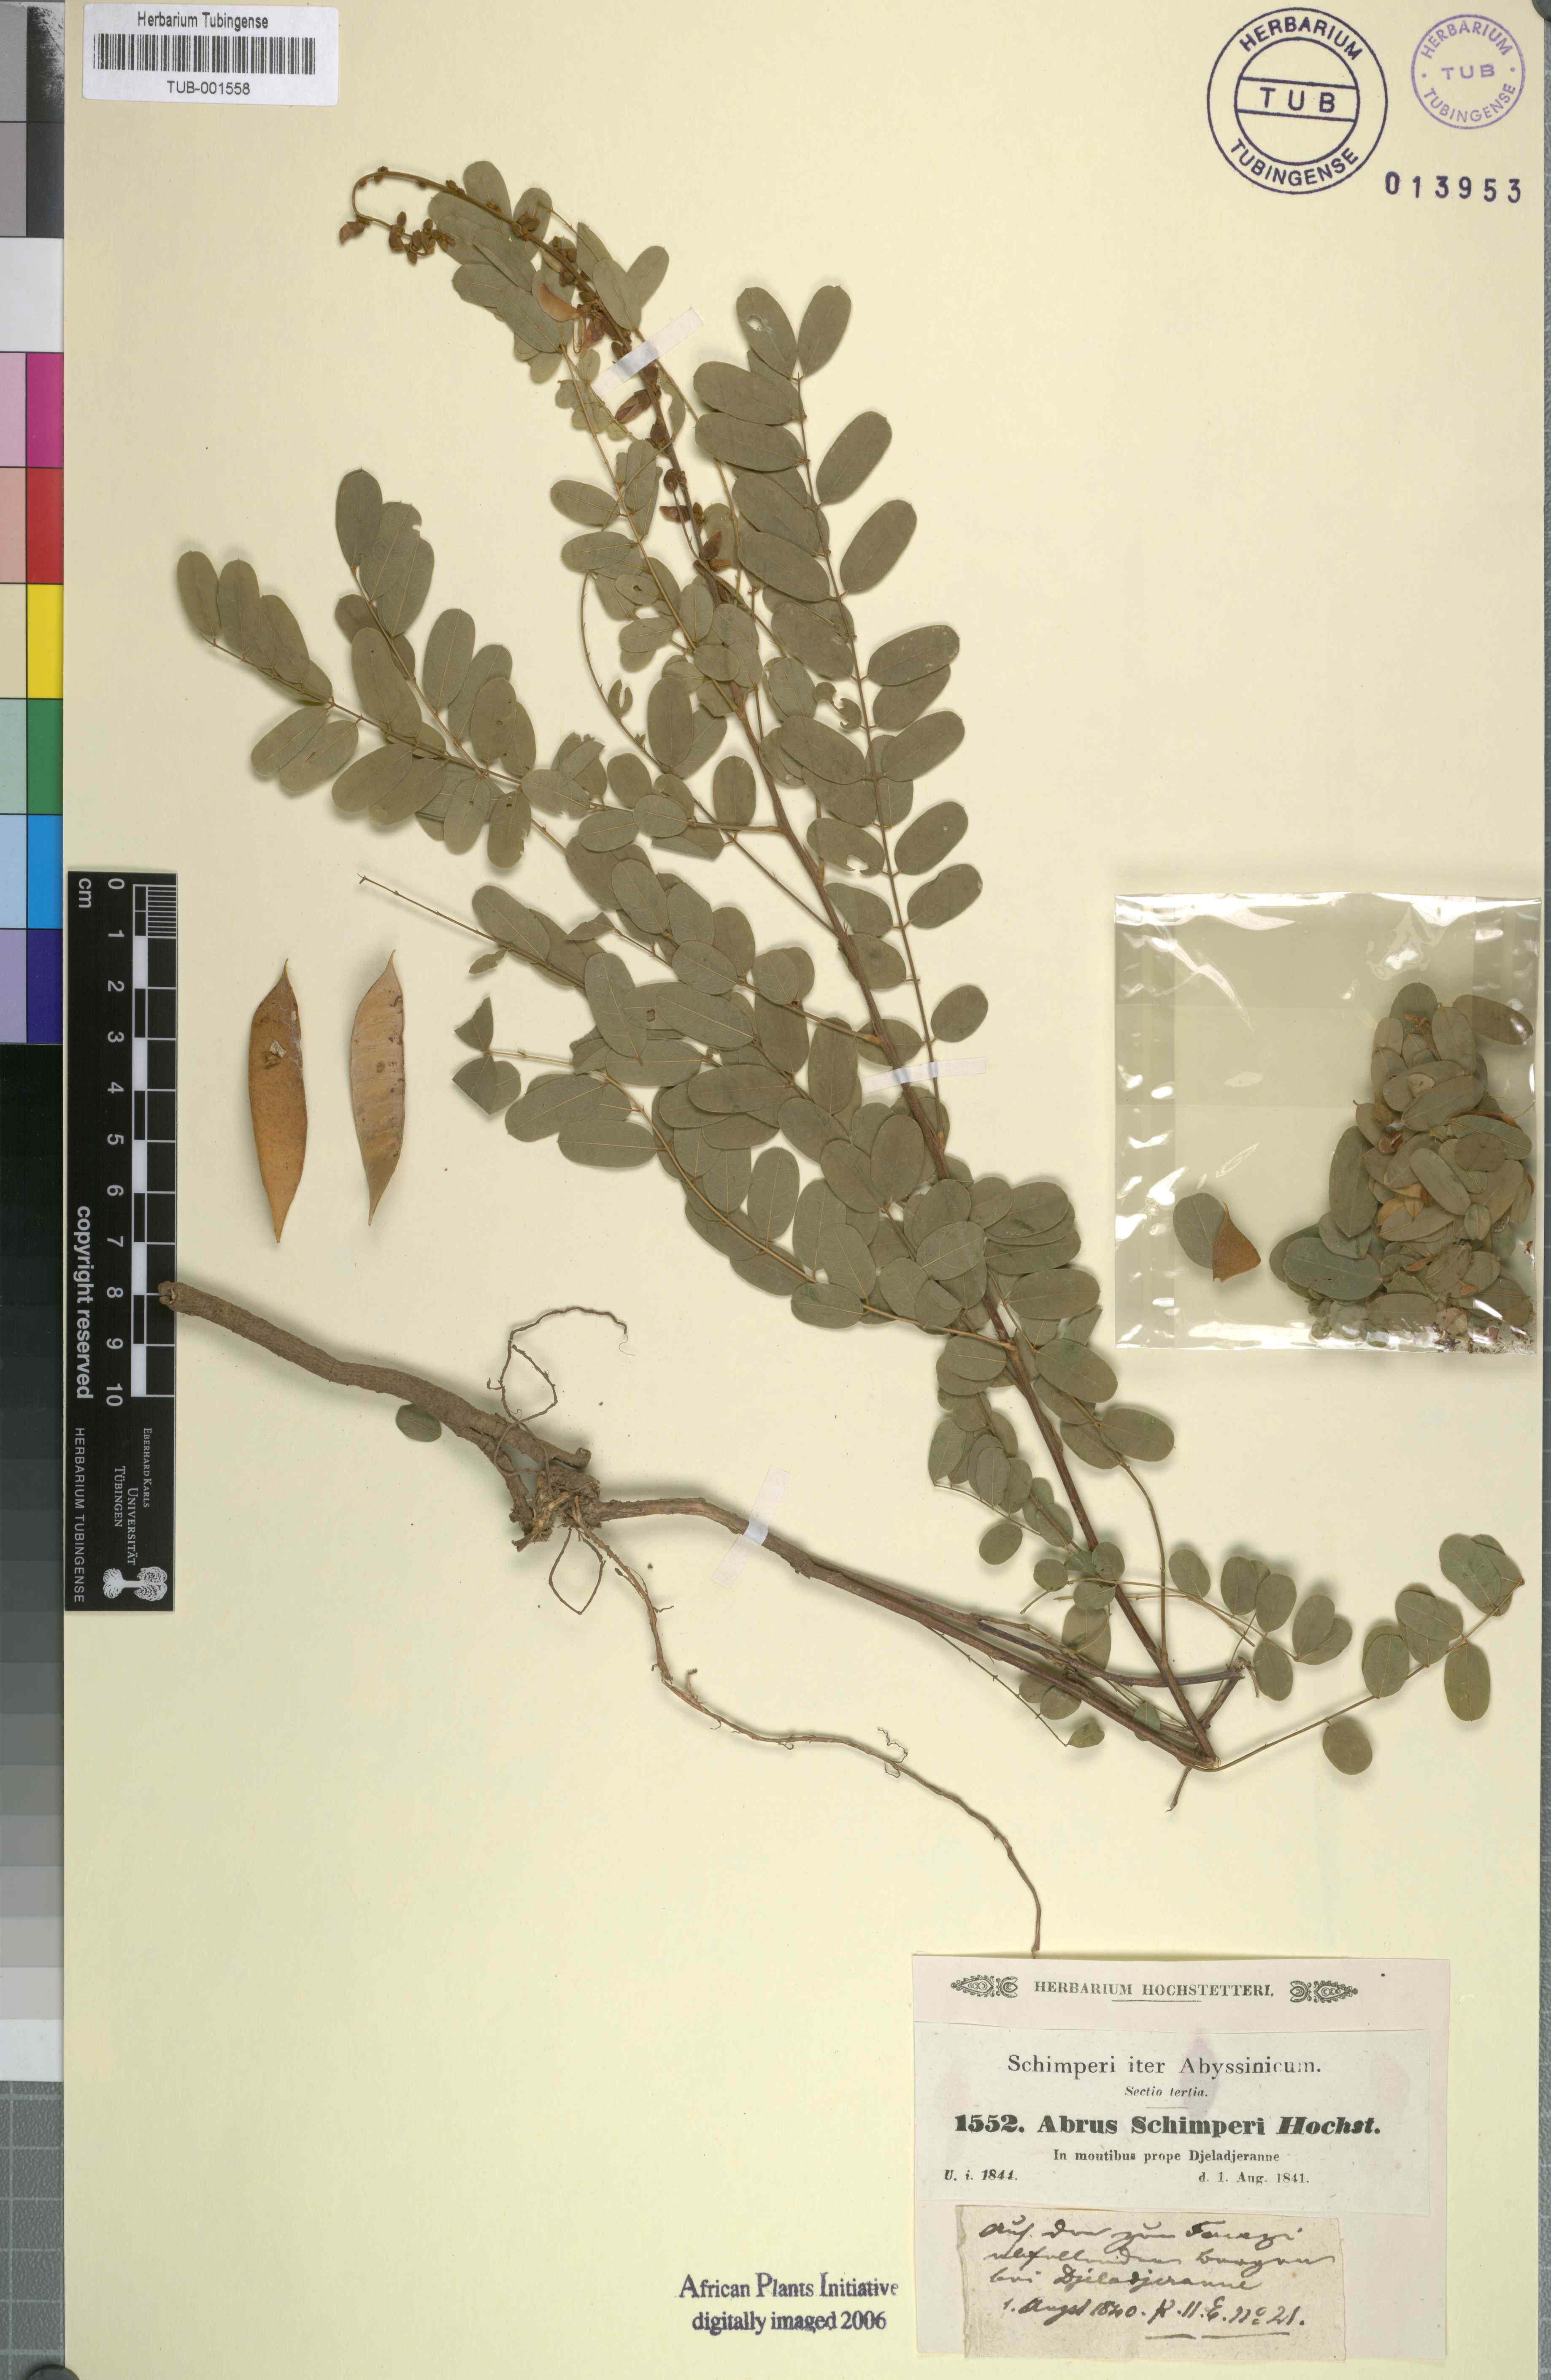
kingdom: Plantae
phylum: Tracheophyta
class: Magnoliopsida
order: Fabales
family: Fabaceae
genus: Abrus
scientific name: Abrus schimperi
